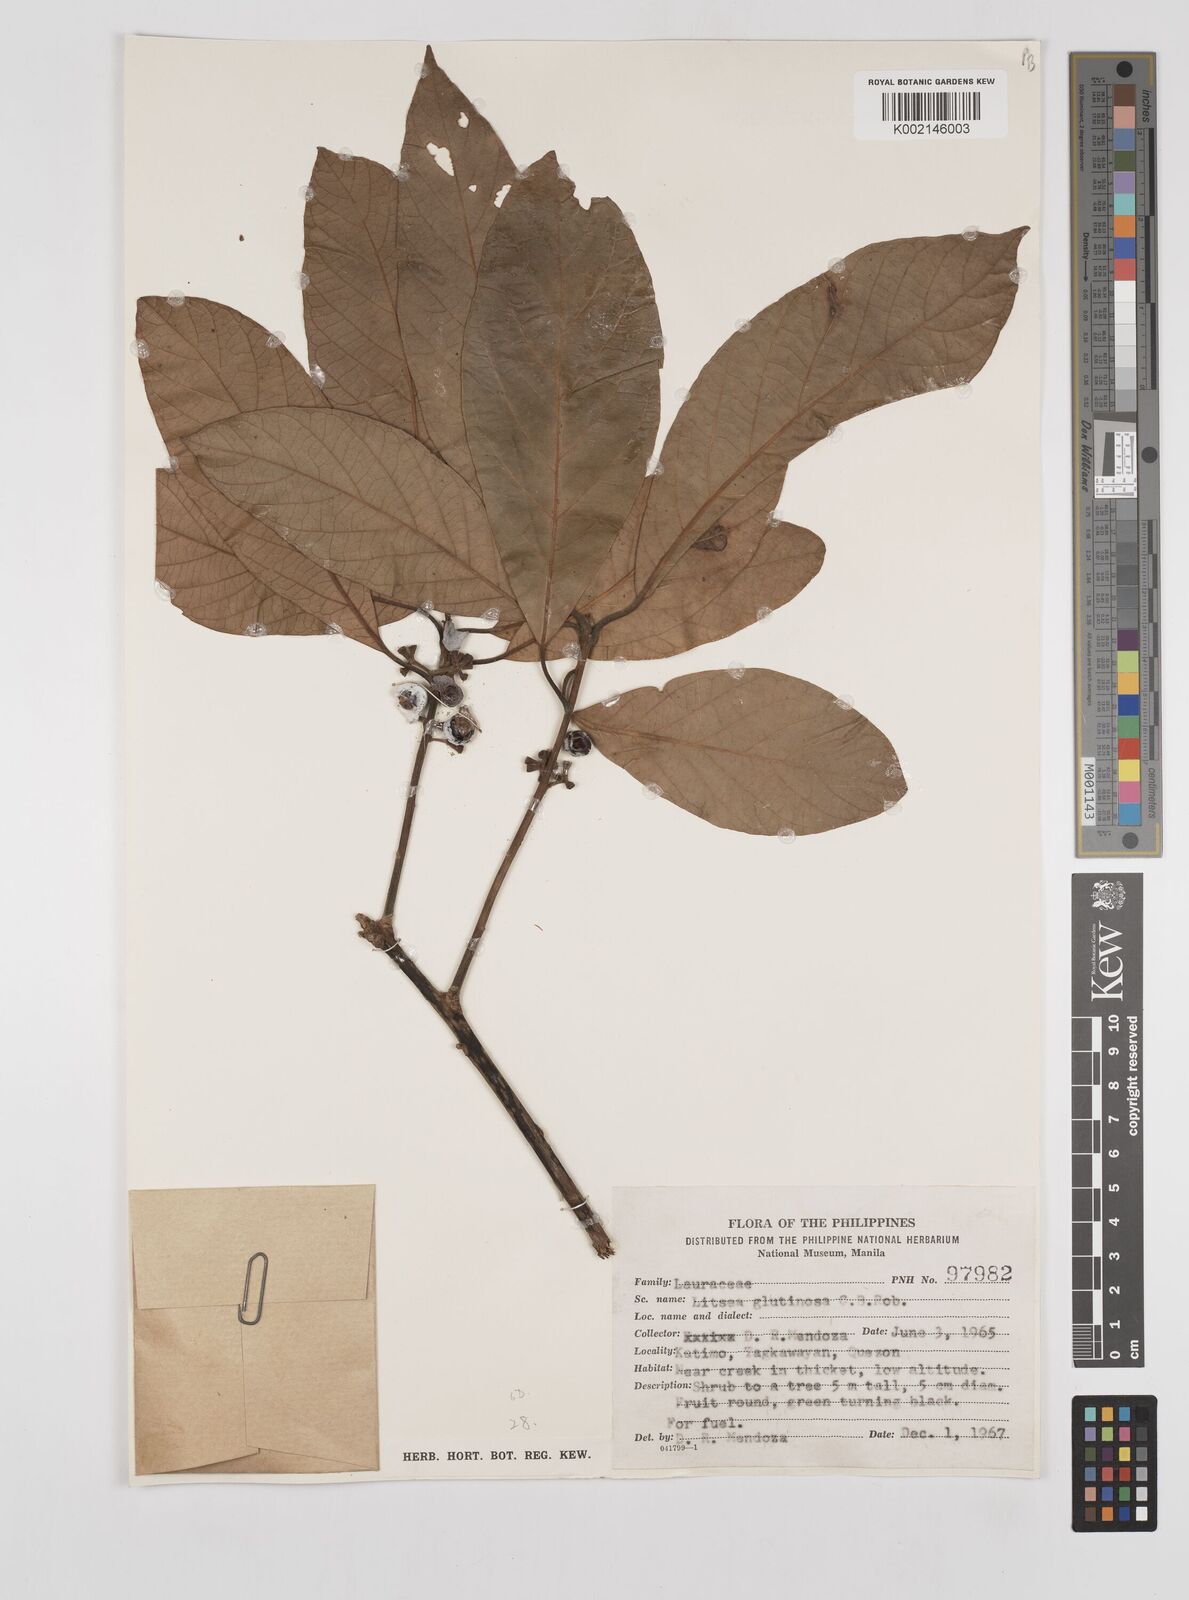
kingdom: Plantae
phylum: Tracheophyta
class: Magnoliopsida
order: Laurales
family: Lauraceae
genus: Litsea
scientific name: Litsea
